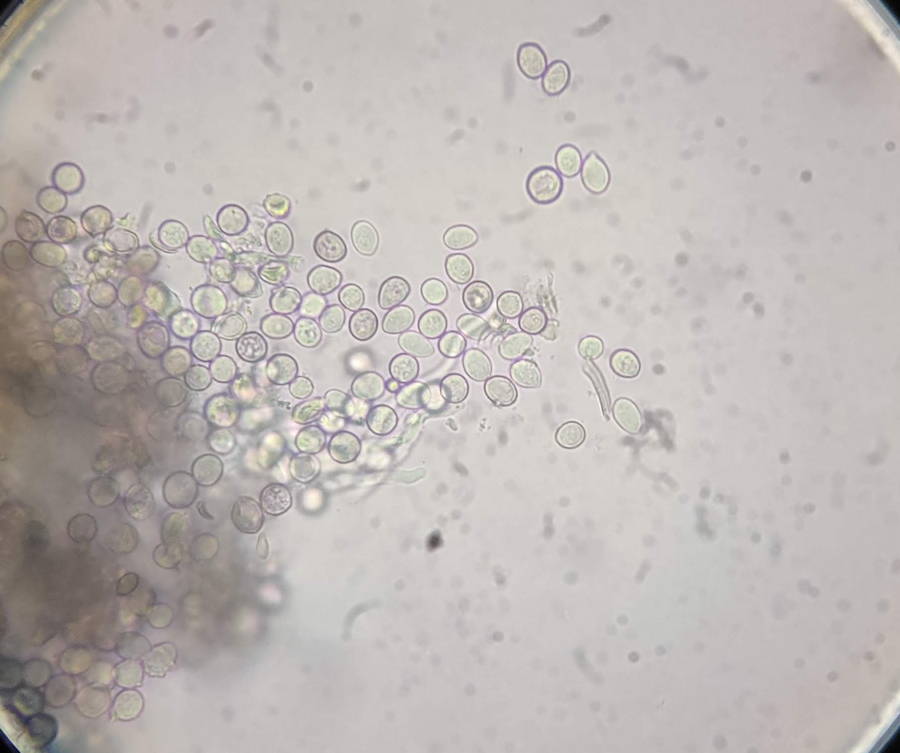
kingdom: Fungi
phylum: Basidiomycota
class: Pucciniomycetes
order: Helicobasidiales
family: Helicobasidiaceae
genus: Helicobasidium
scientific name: Helicobasidium purpureum
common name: purpur-bispebævrehinde
